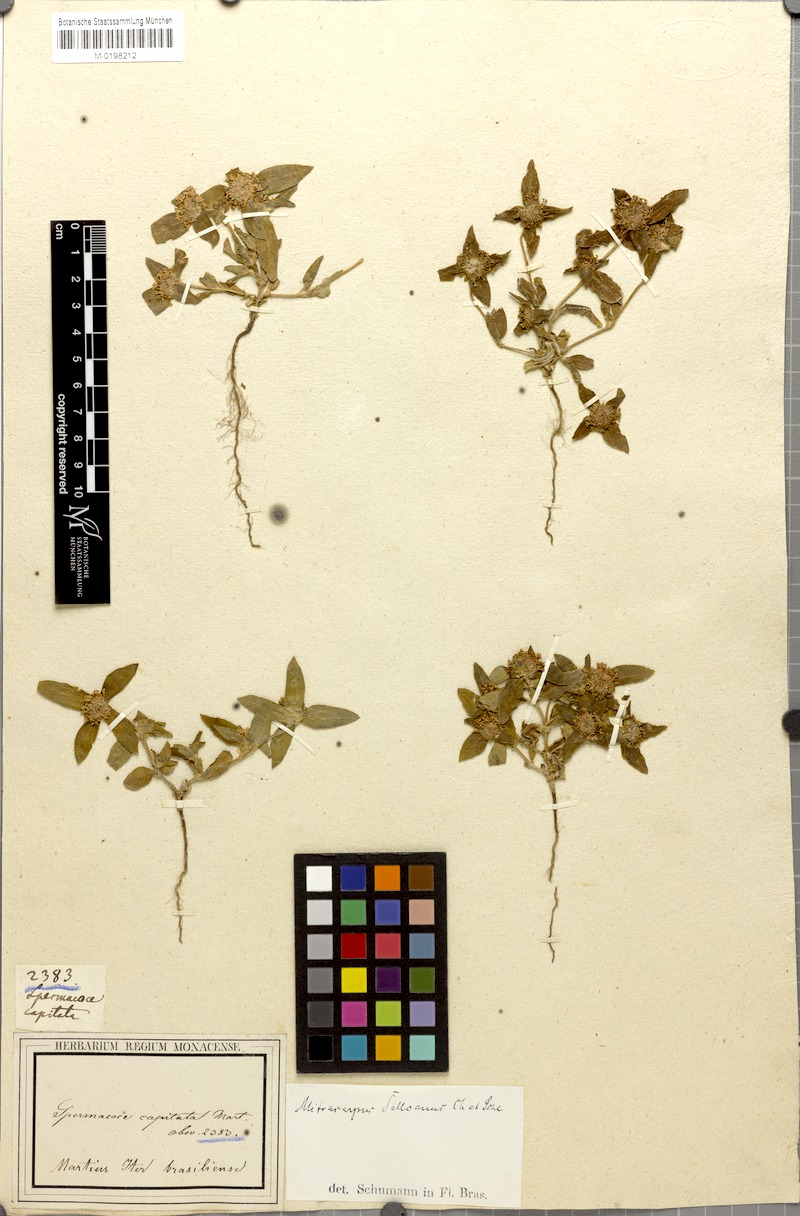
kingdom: Plantae
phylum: Tracheophyta
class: Magnoliopsida
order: Gentianales
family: Rubiaceae
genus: Mitracarpus
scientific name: Mitracarpus megapotamicus
